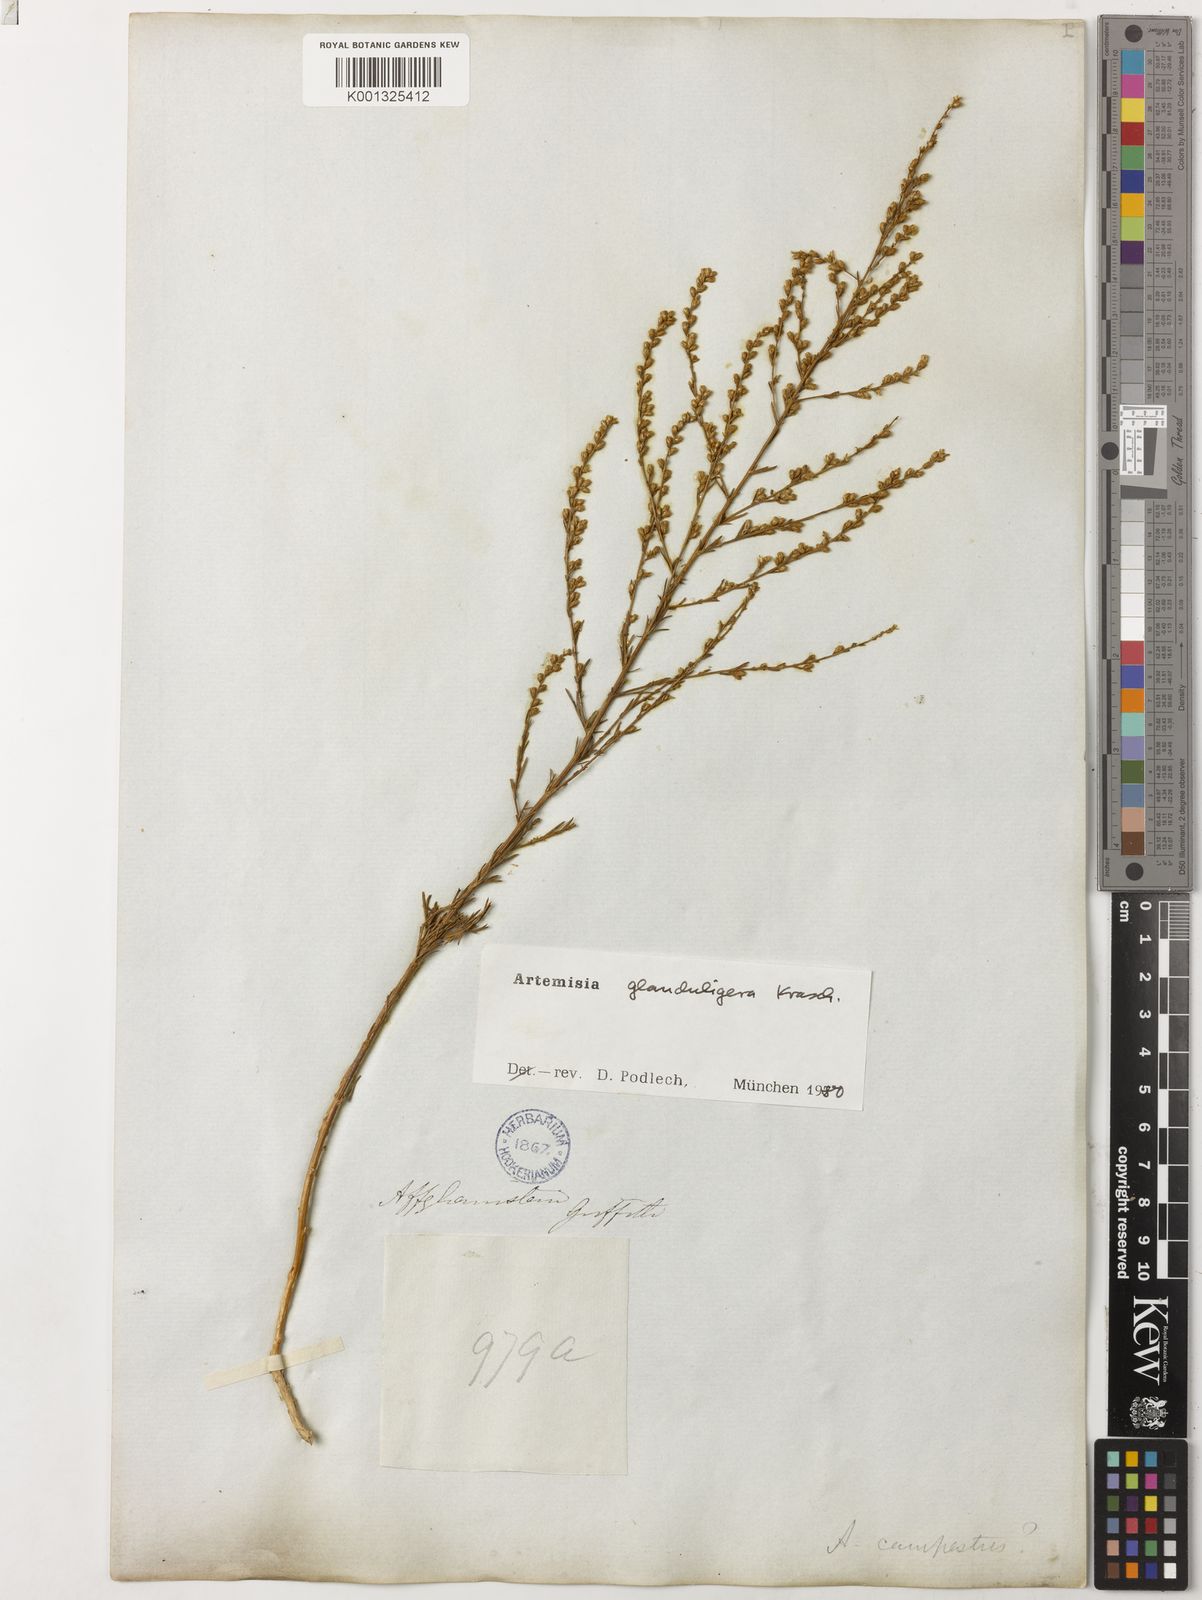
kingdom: Plantae
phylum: Tracheophyta
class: Magnoliopsida
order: Asterales
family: Asteraceae
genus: Artemisia
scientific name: Artemisia glanduligera
